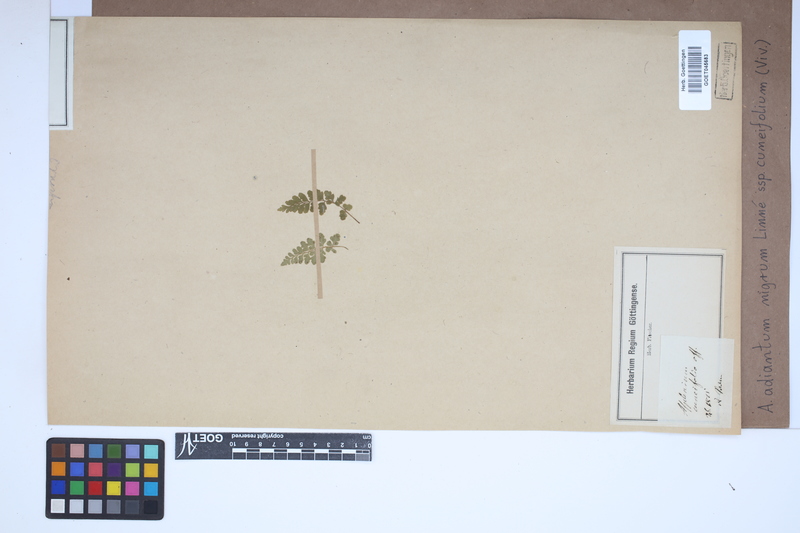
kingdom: Plantae
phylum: Tracheophyta
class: Polypodiopsida
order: Polypodiales
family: Aspleniaceae
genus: Asplenium
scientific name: Asplenium cuneifolium
